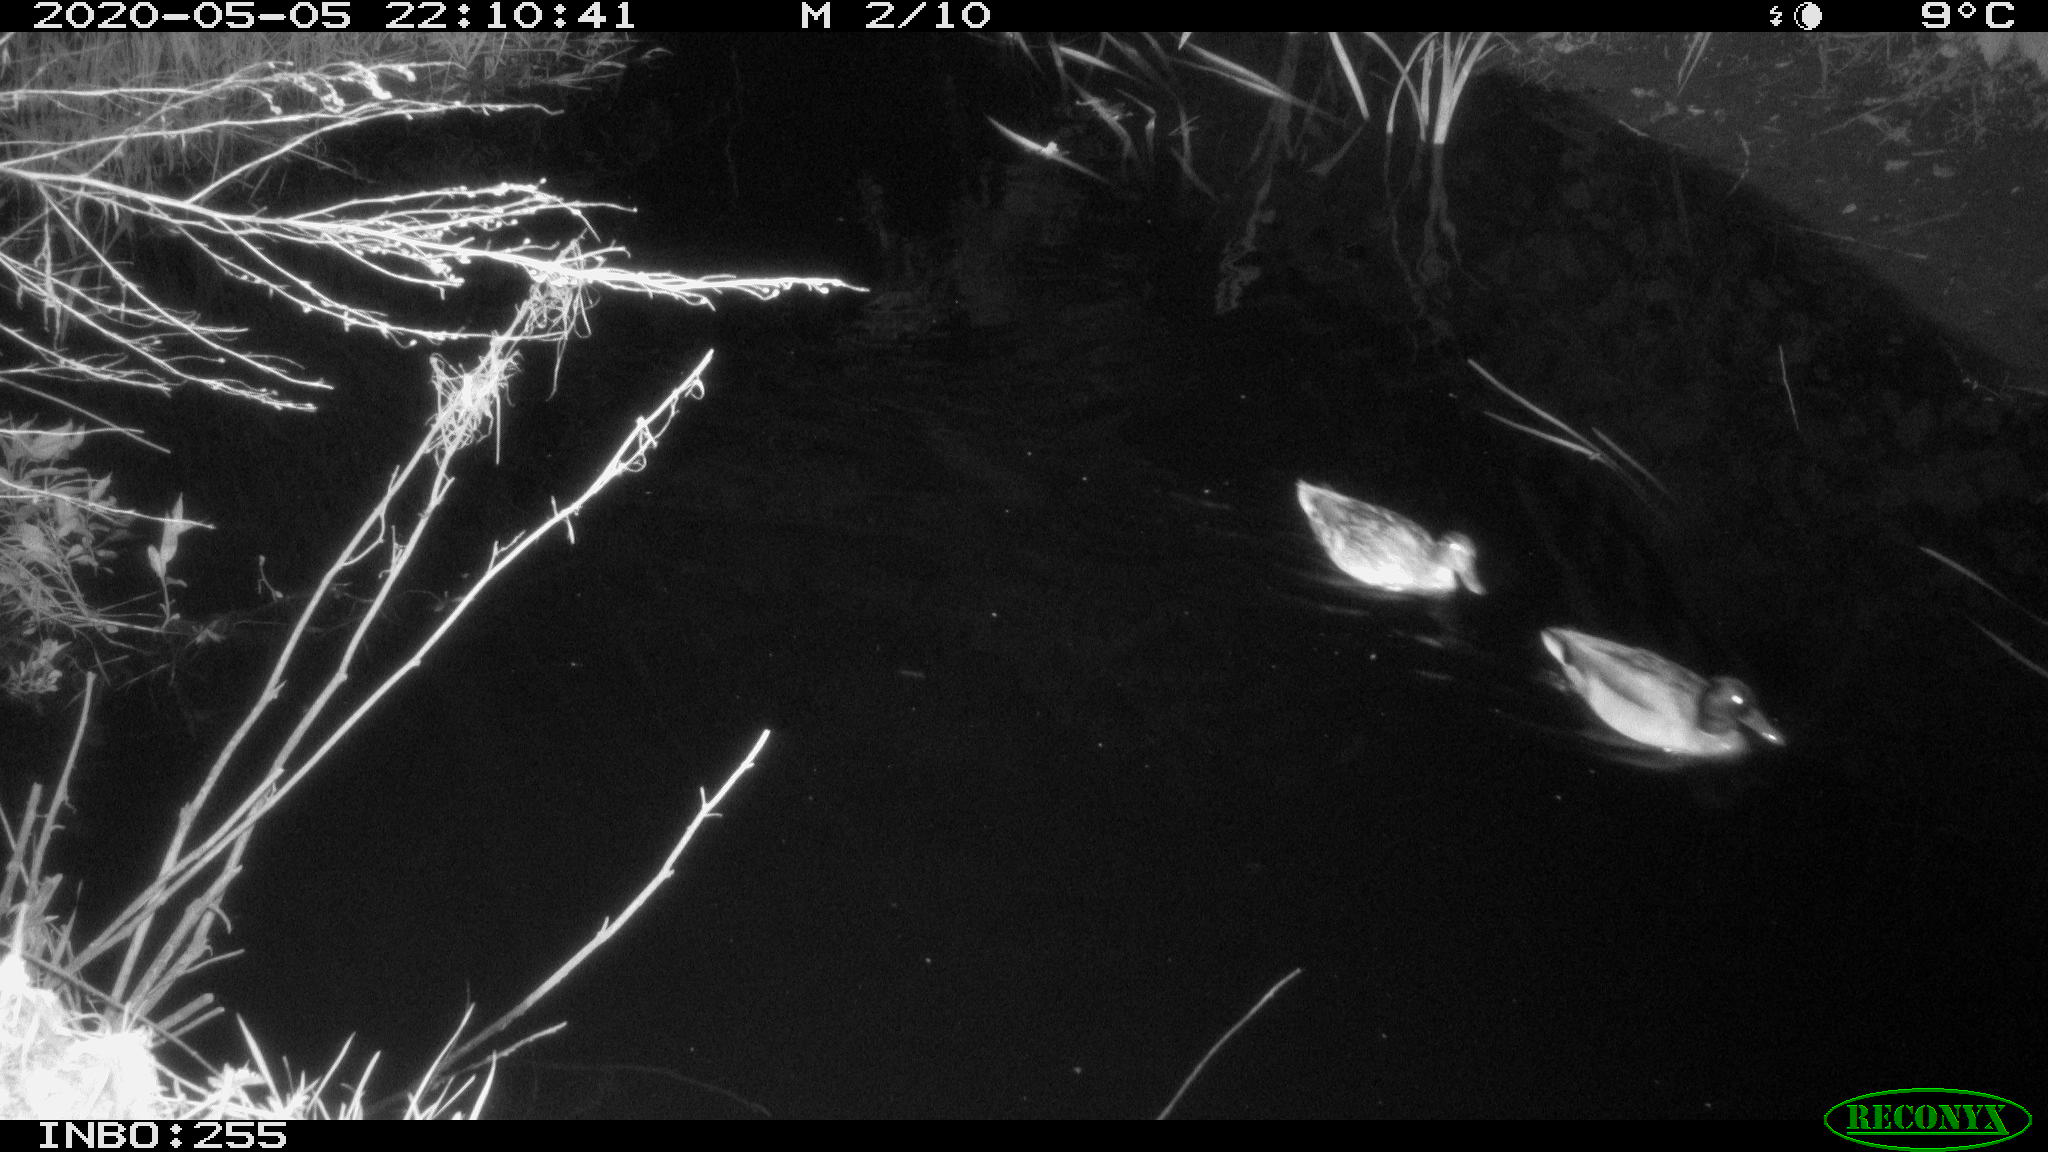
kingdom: Animalia
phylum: Chordata
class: Aves
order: Anseriformes
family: Anatidae
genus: Anas
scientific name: Anas platyrhynchos
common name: Mallard
